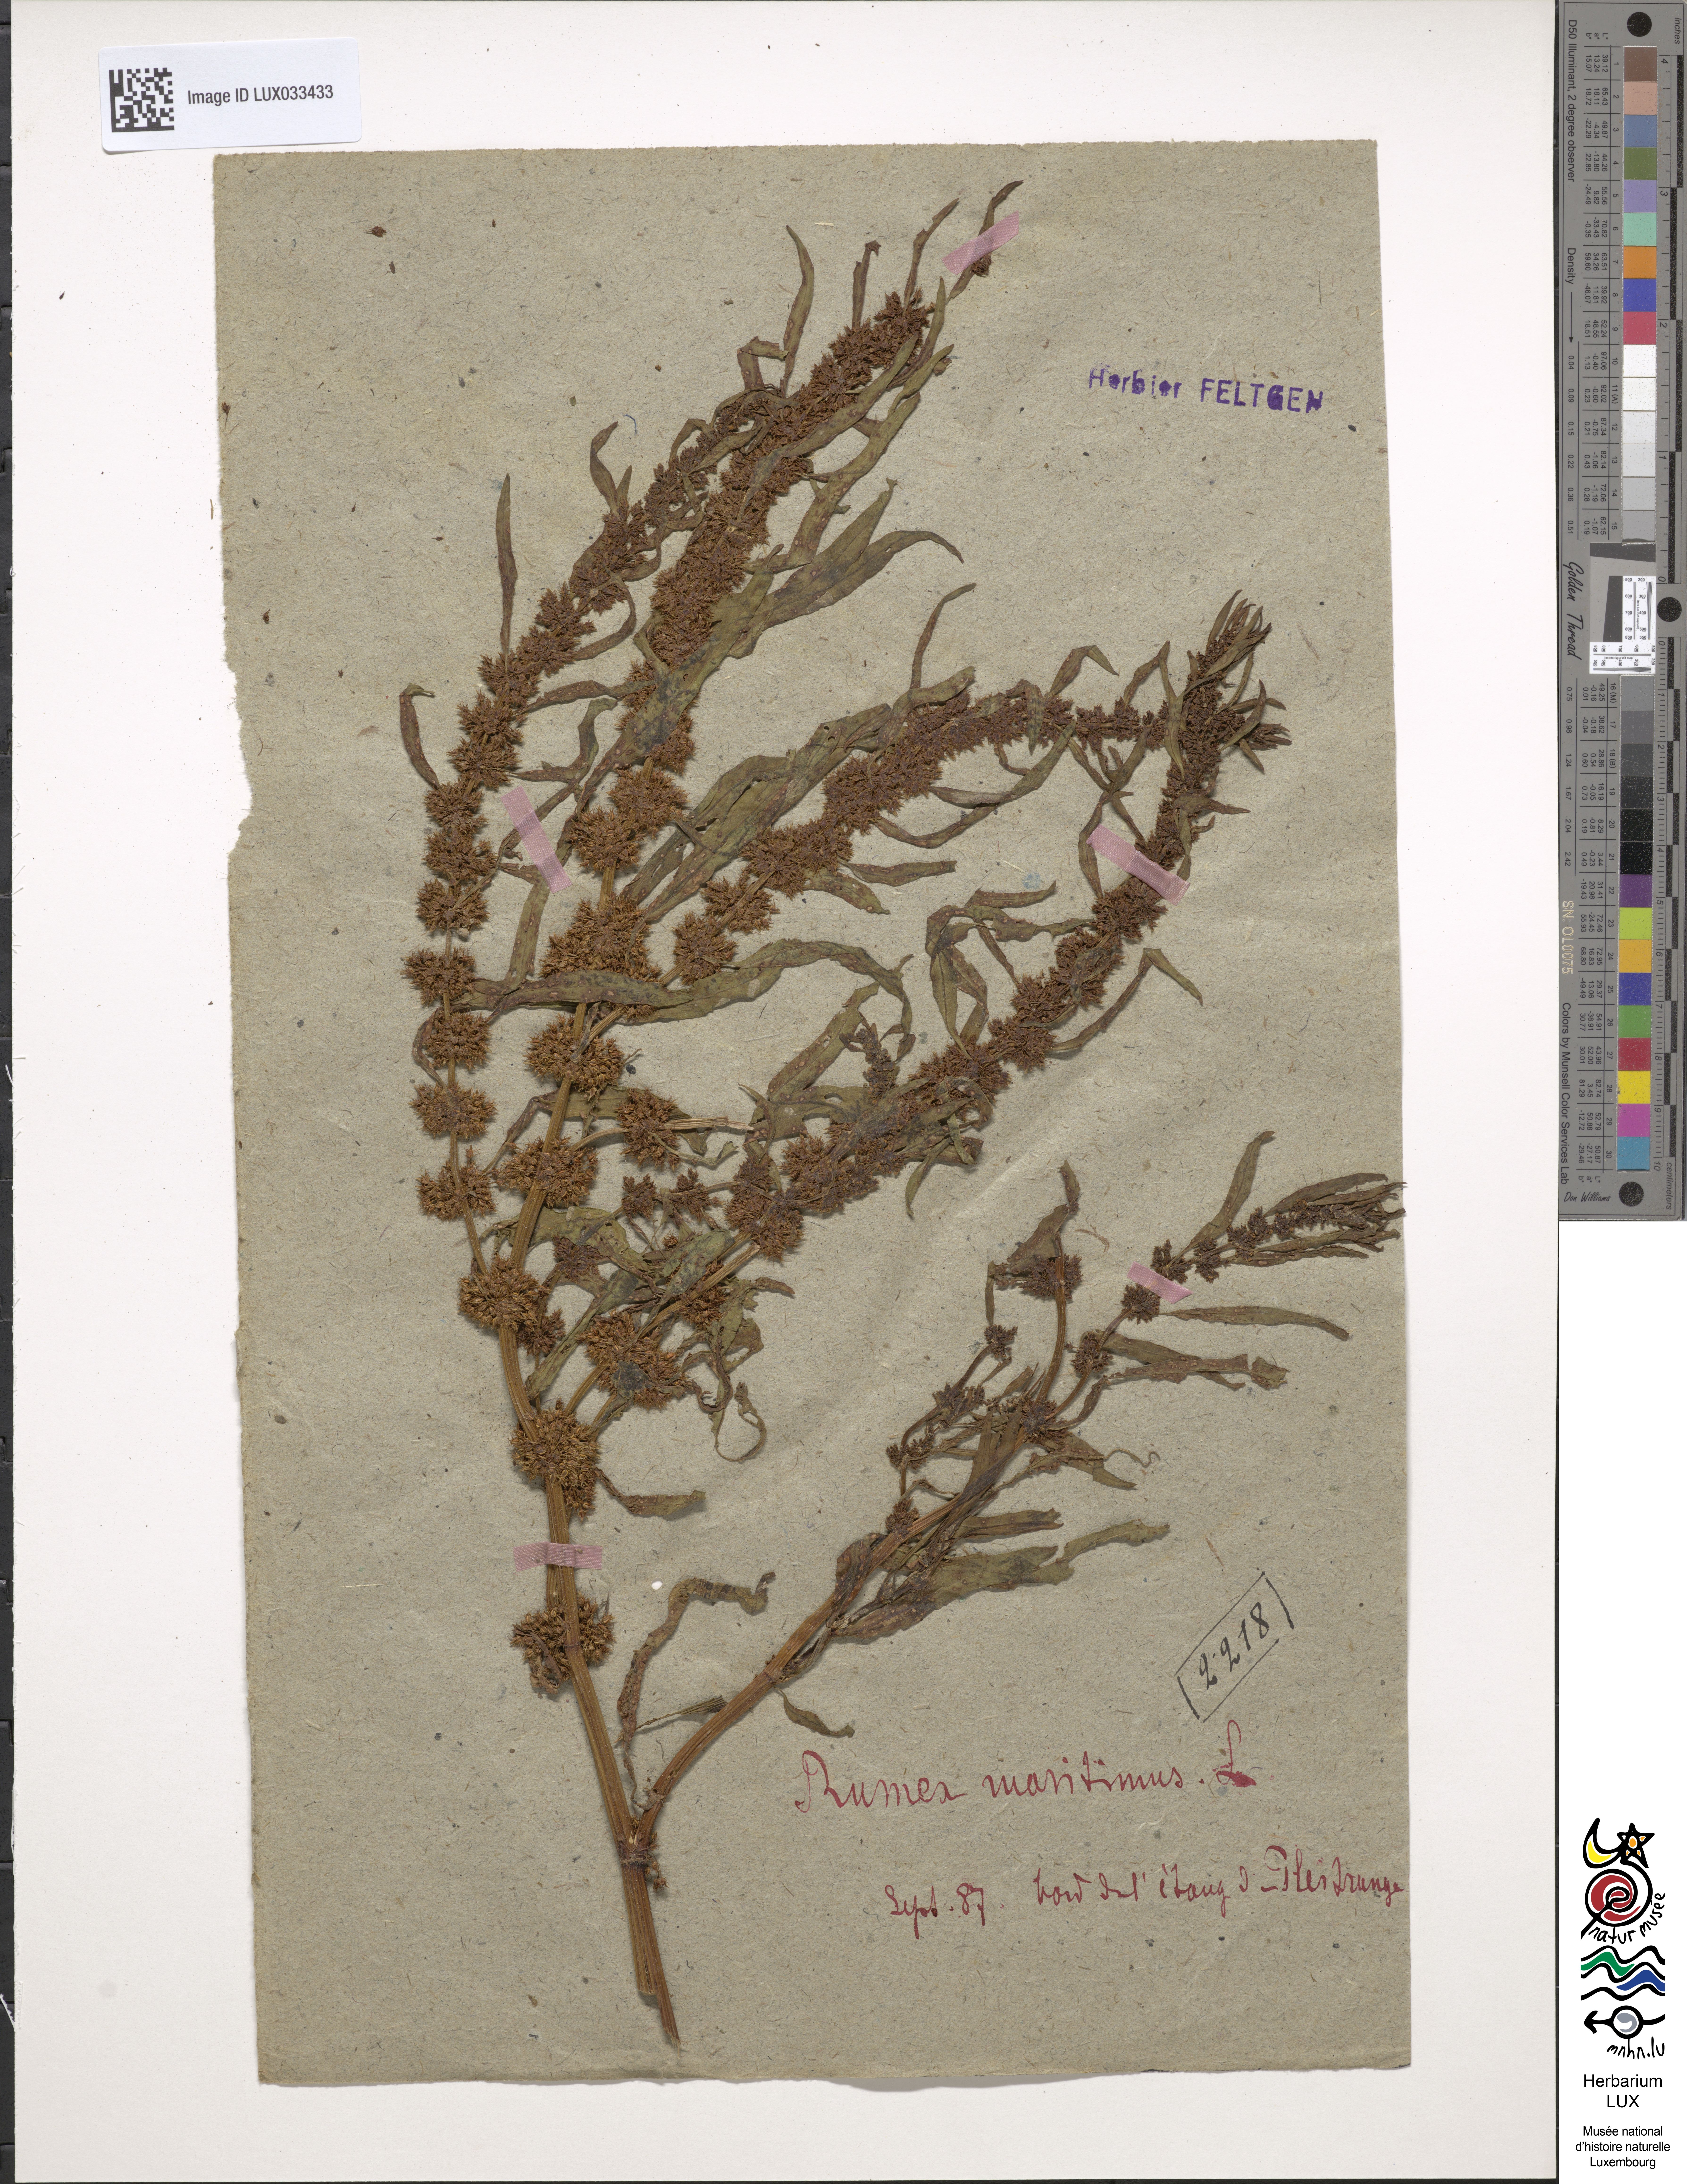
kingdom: Plantae
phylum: Tracheophyta
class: Magnoliopsida
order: Caryophyllales
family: Polygonaceae
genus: Rumex
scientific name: Rumex maritimus
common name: Golden dock
